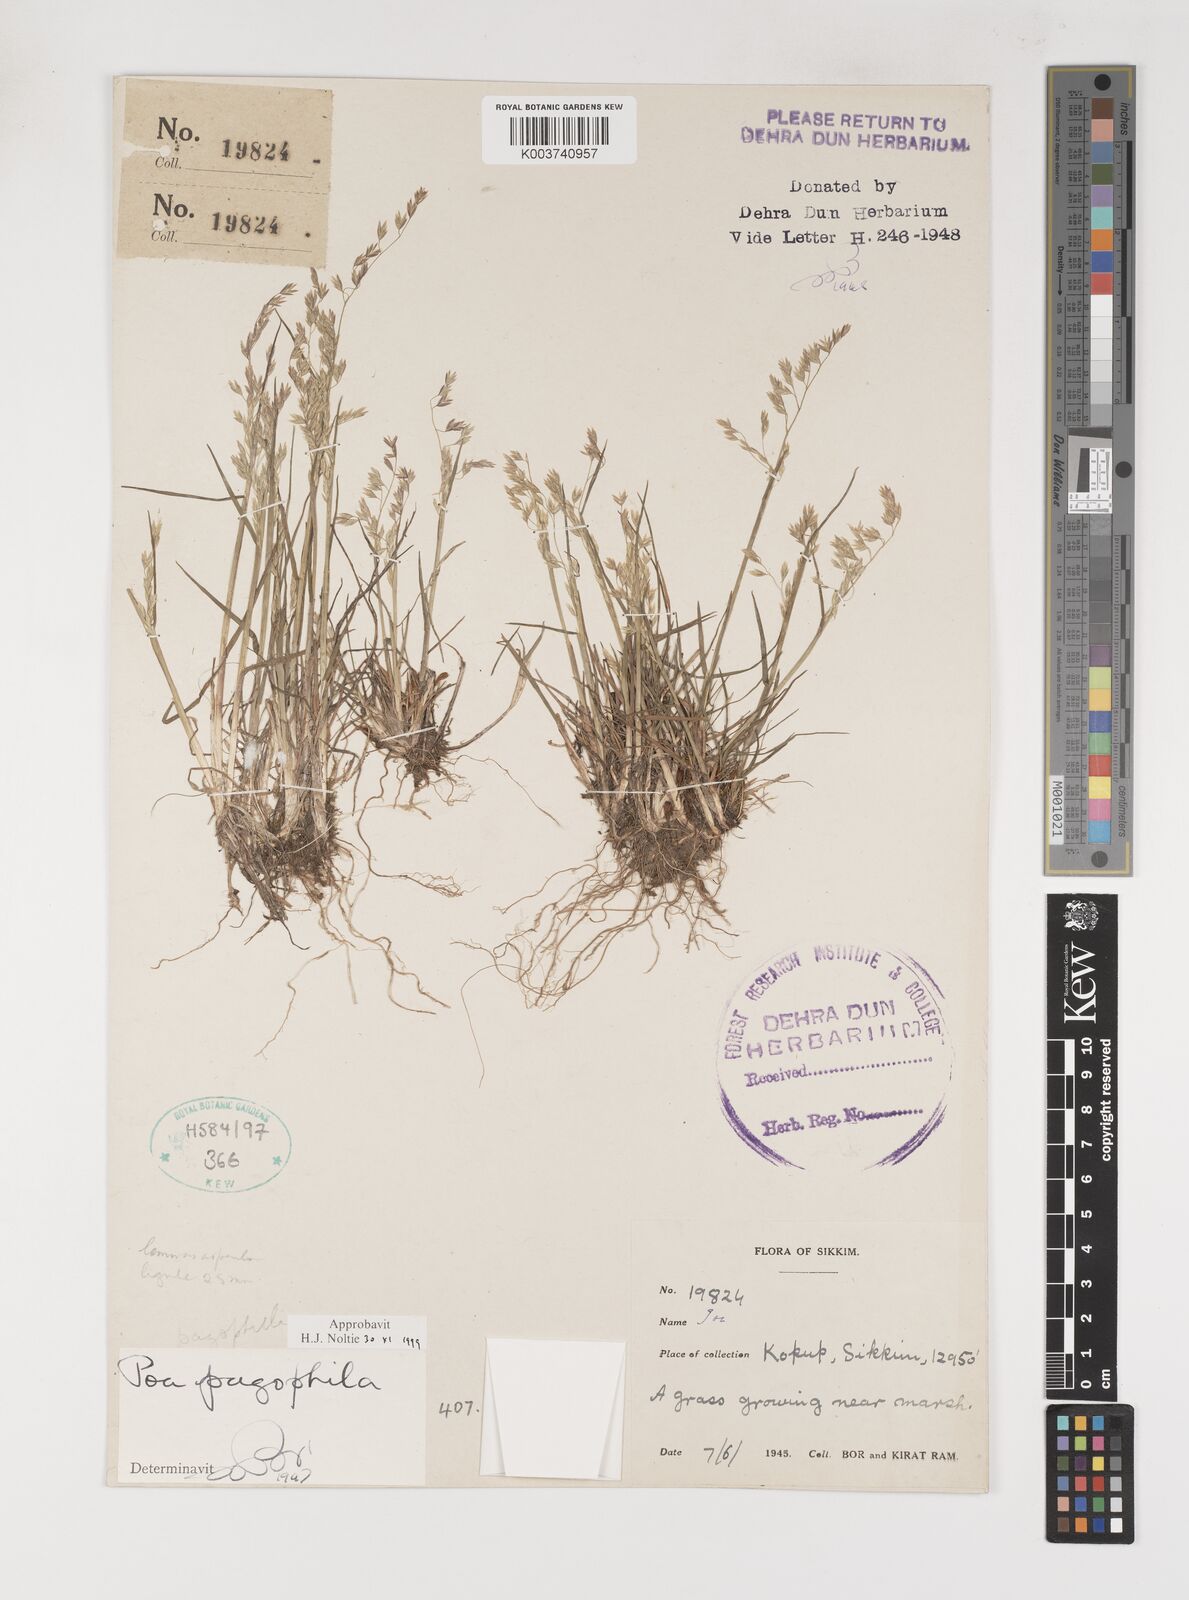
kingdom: Plantae
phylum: Tracheophyta
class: Liliopsida
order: Poales
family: Poaceae
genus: Poa
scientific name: Poa pagophila
